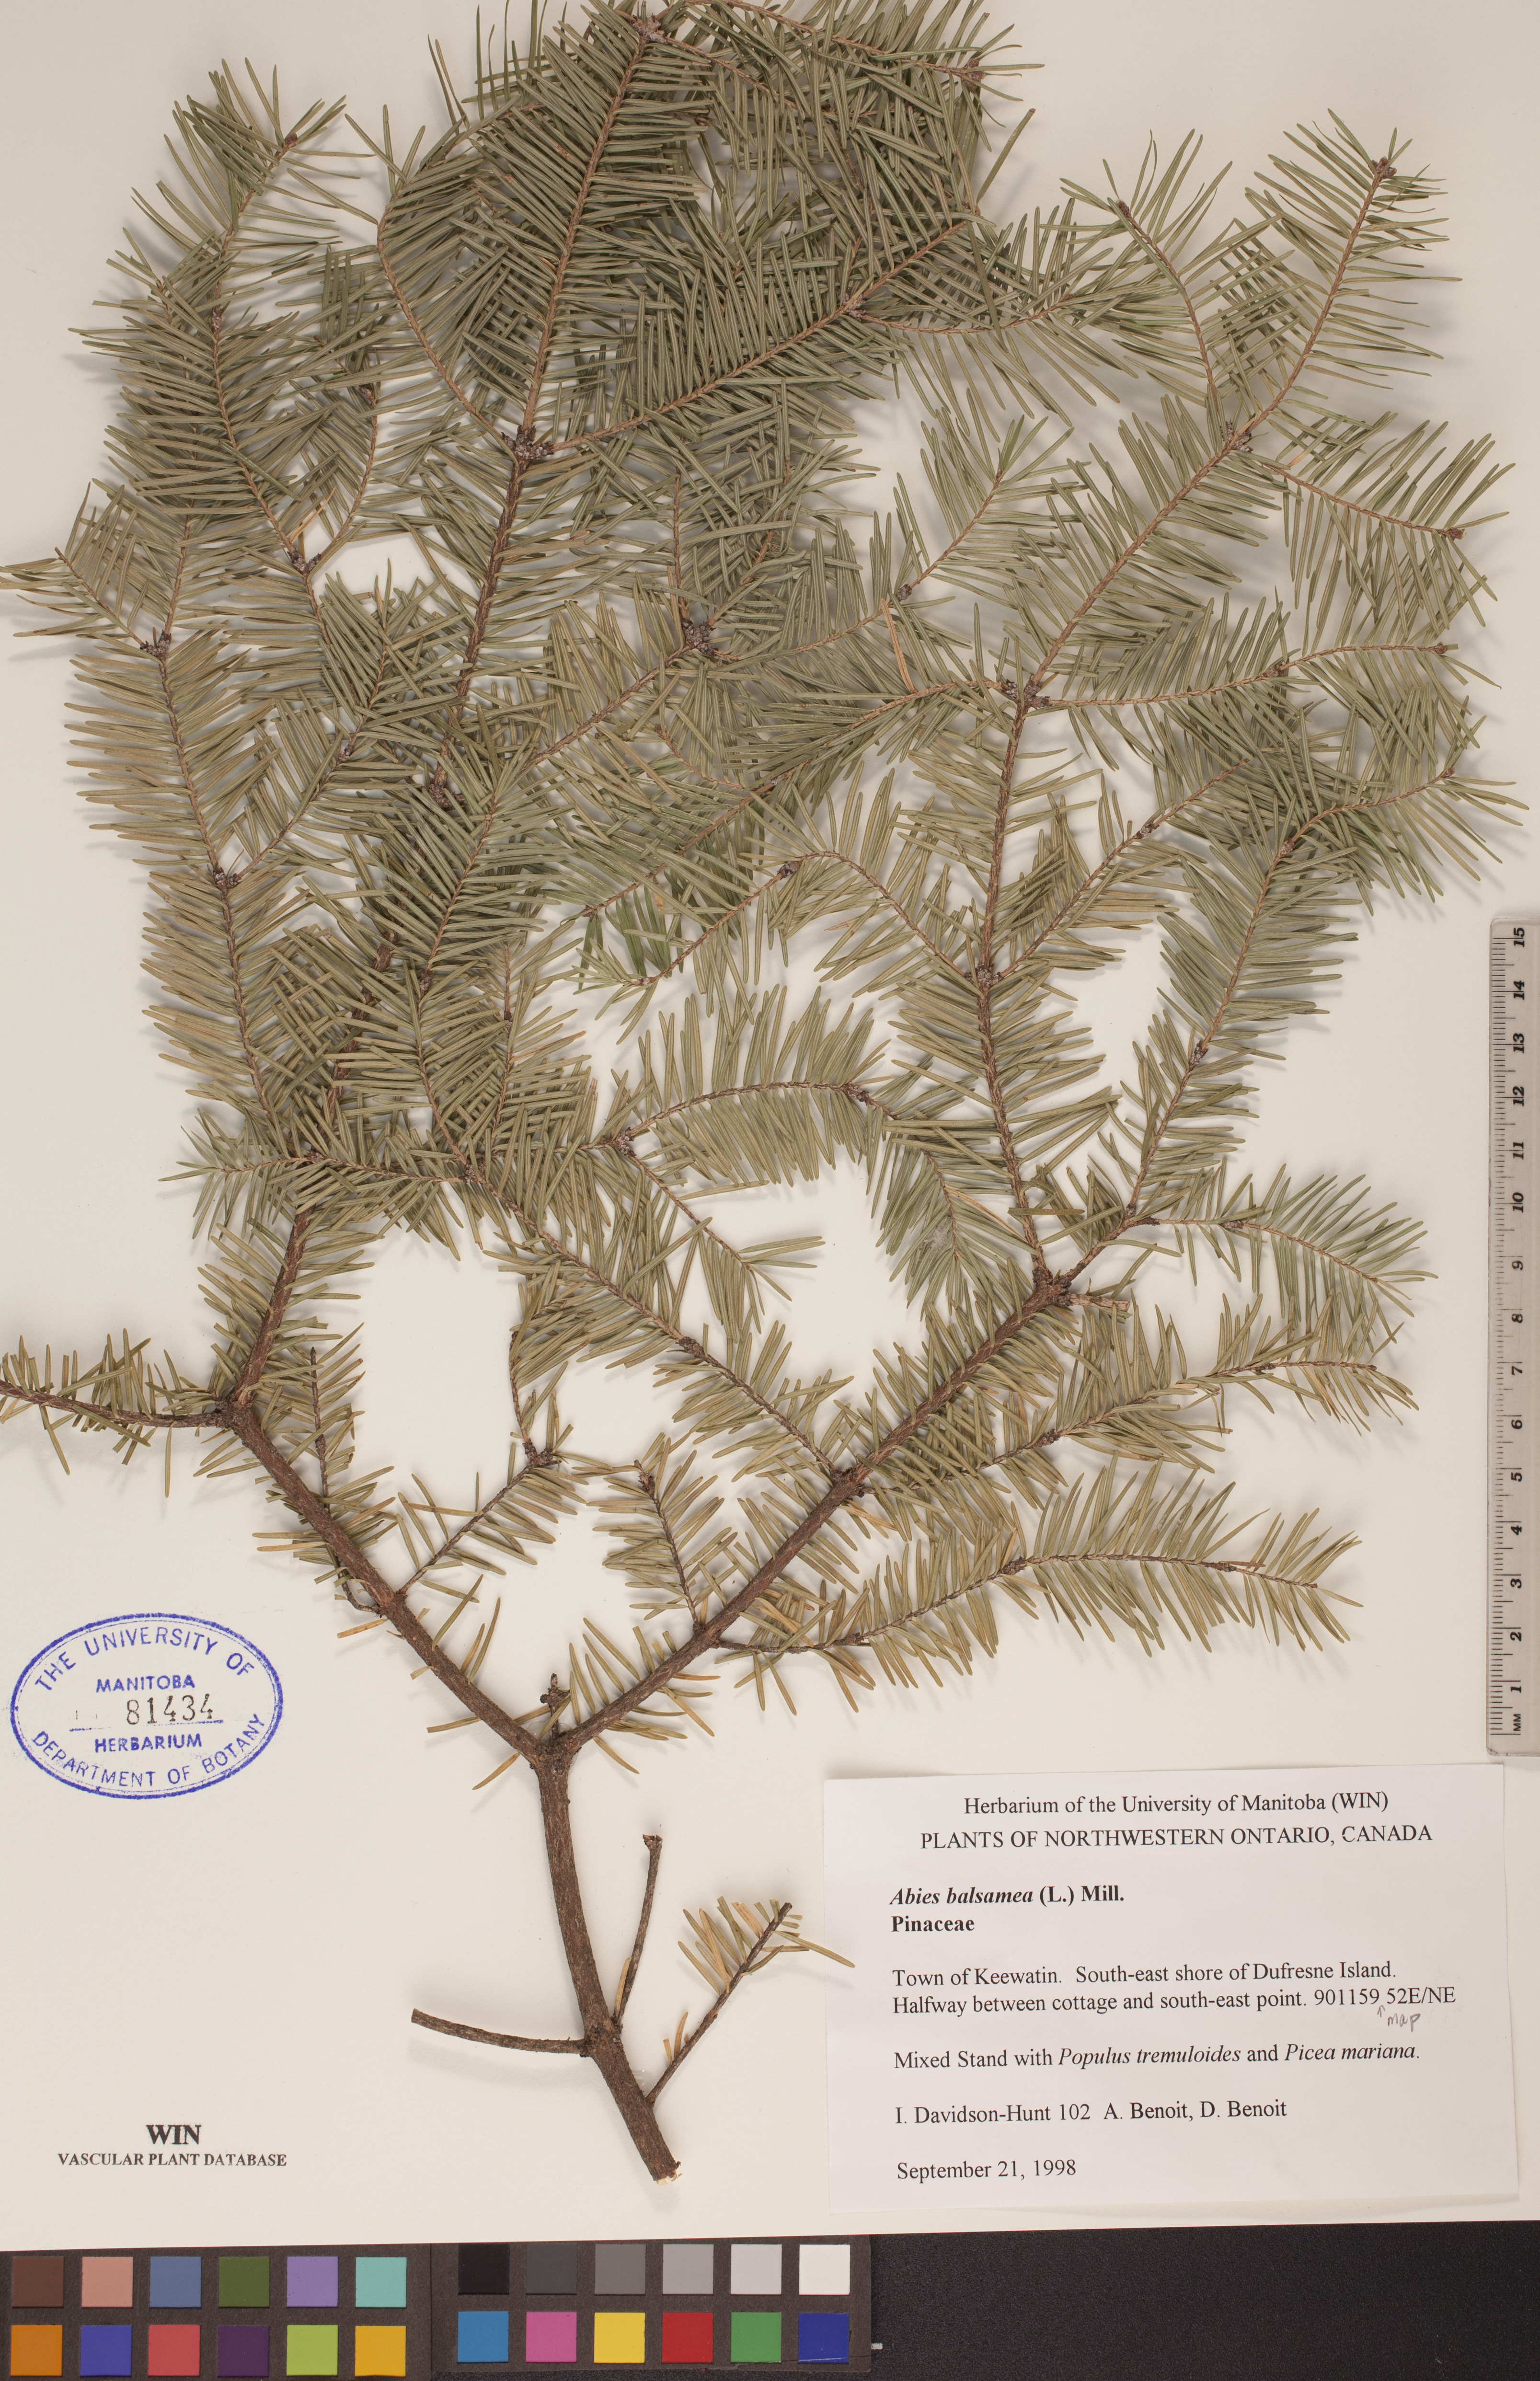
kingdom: Plantae
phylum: Tracheophyta
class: Pinopsida
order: Pinales
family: Pinaceae
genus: Abies
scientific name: Abies balsamea
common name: Balsam fir
